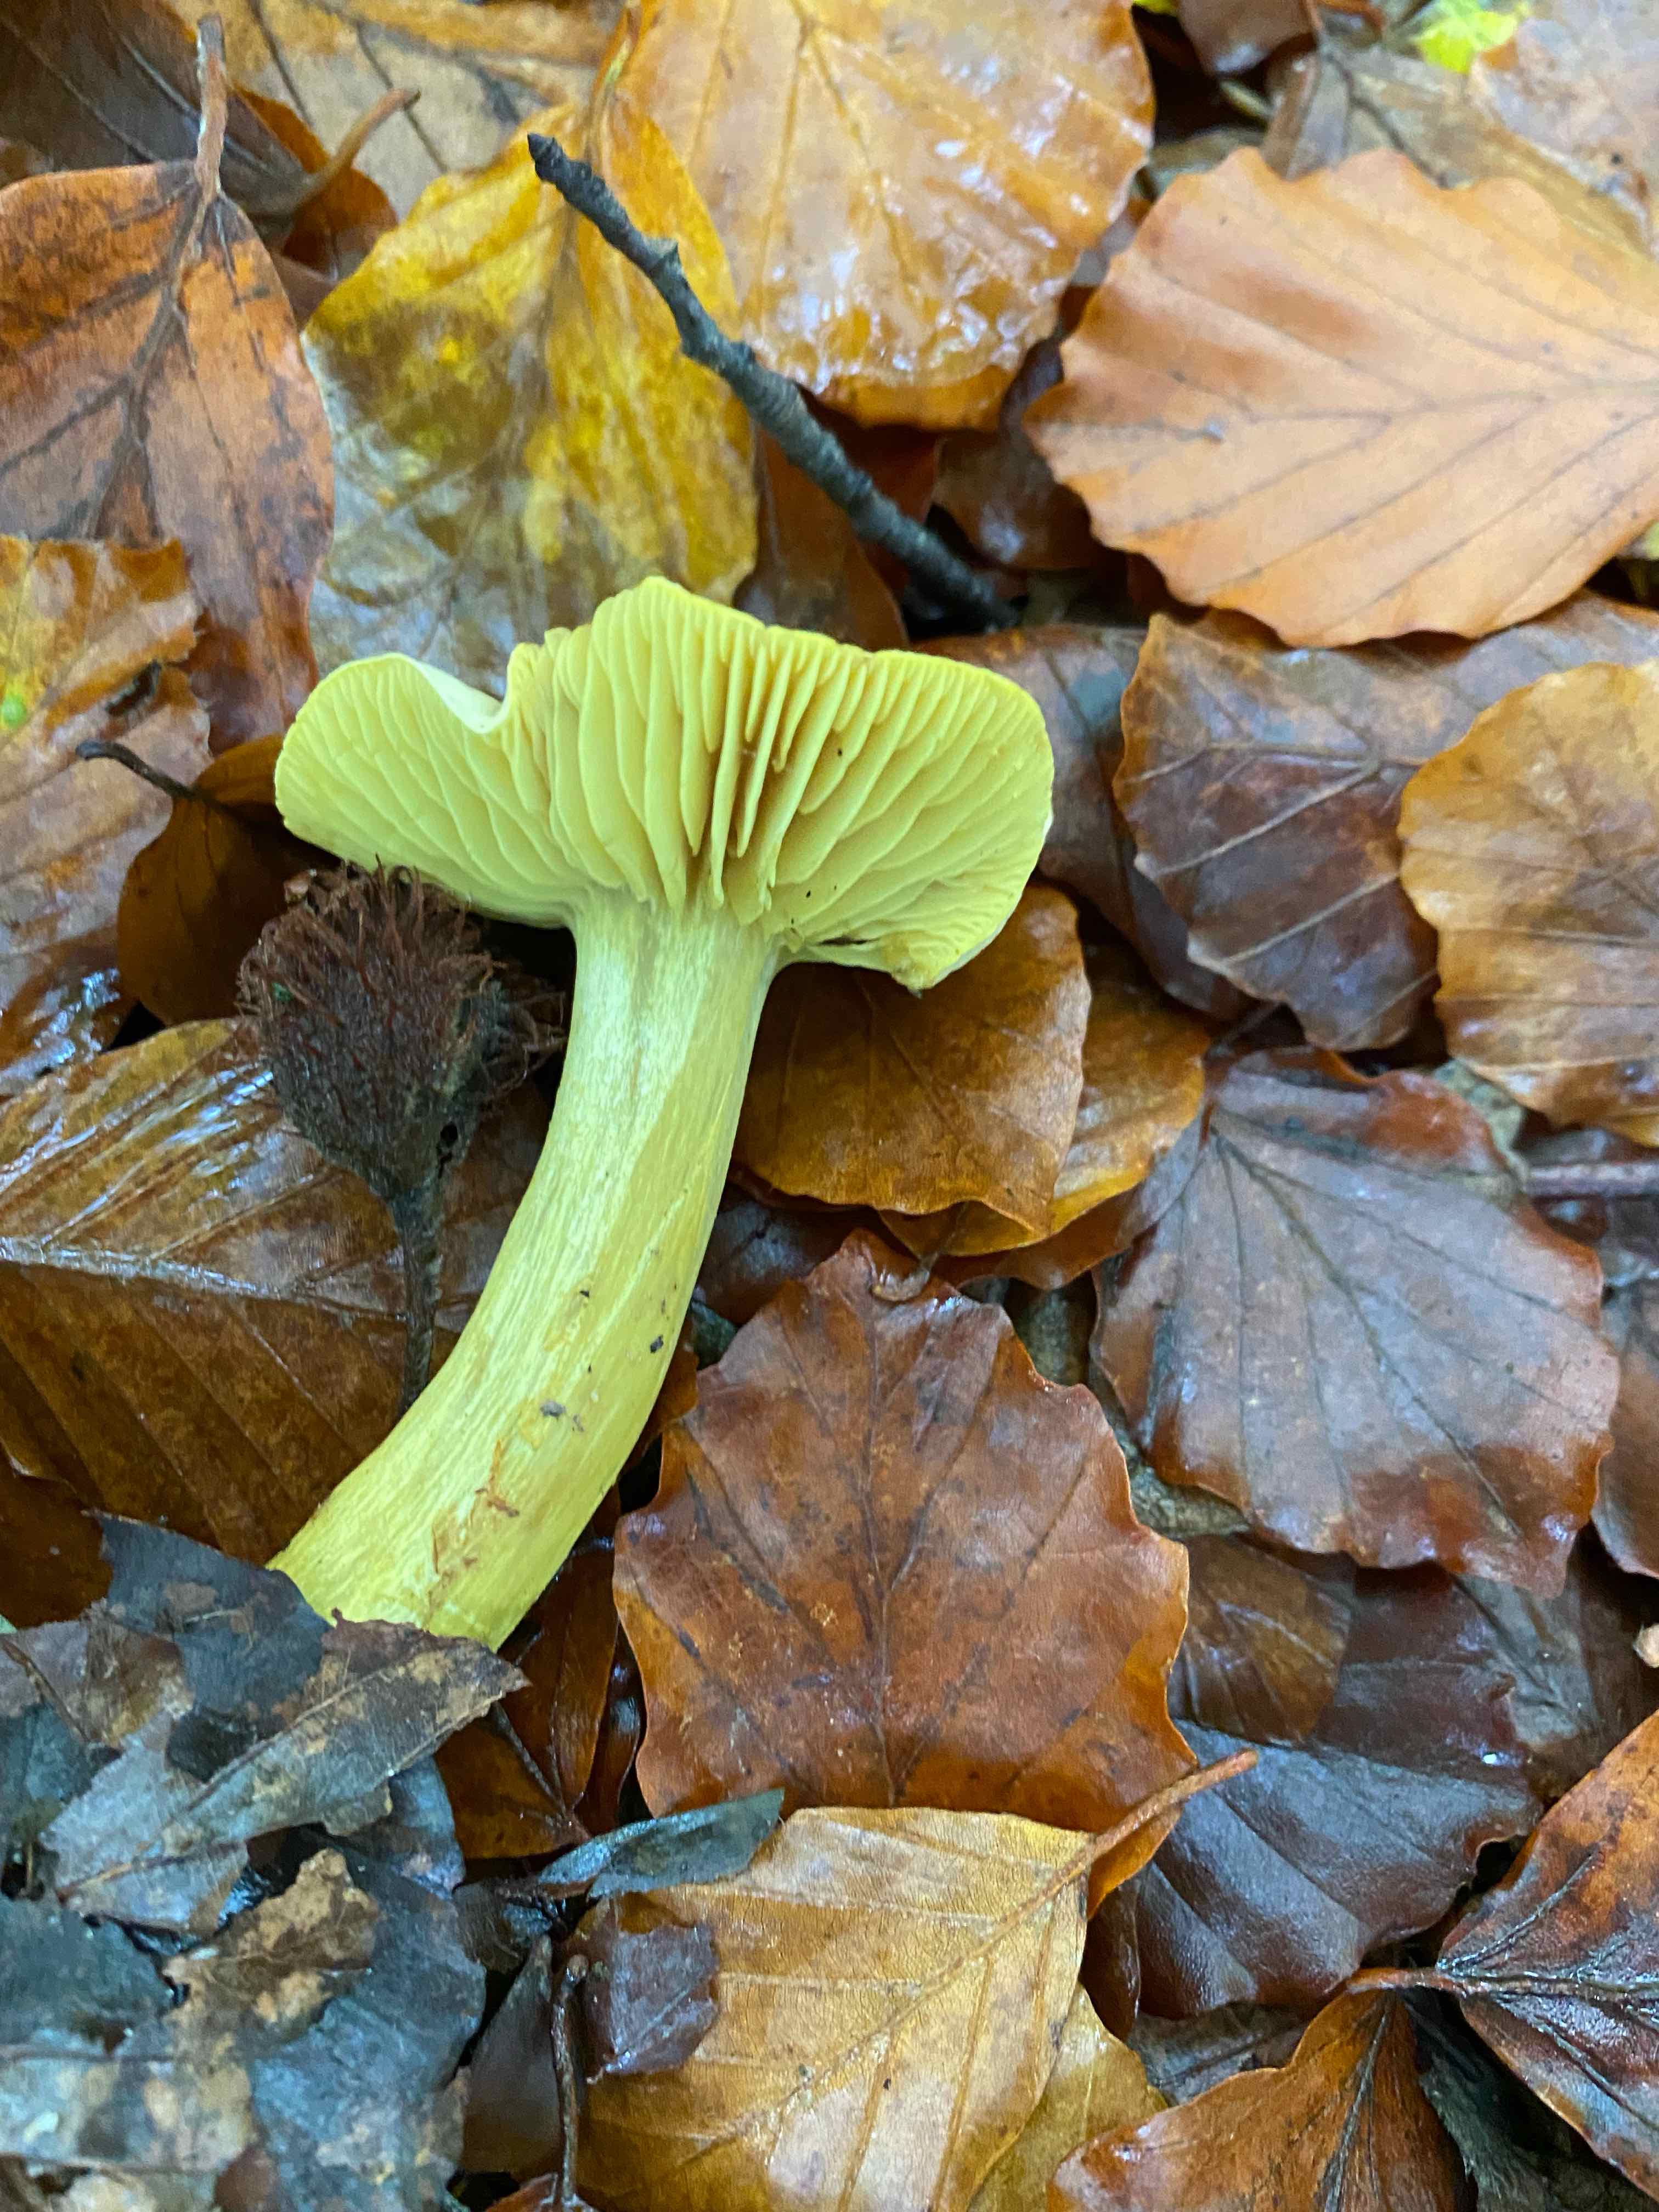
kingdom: Fungi
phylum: Basidiomycota
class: Agaricomycetes
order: Agaricales
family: Tricholomataceae
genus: Tricholoma
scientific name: Tricholoma sulphureum
